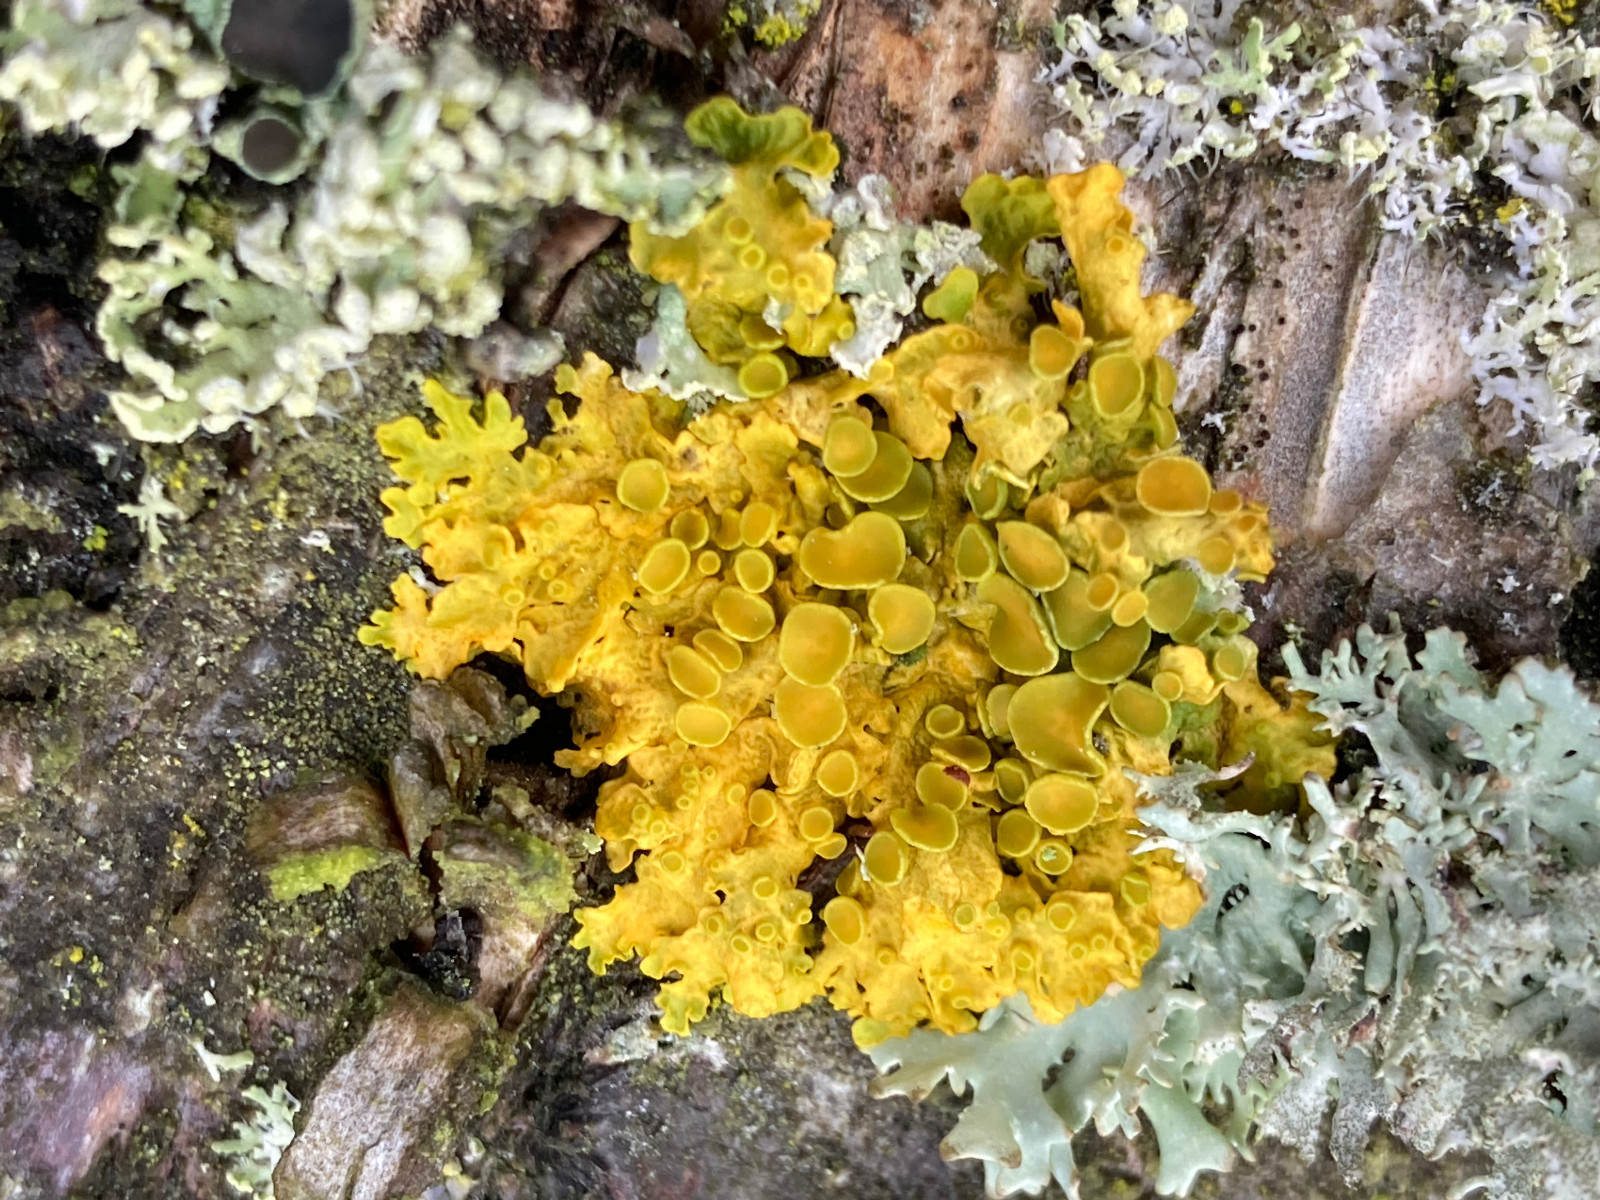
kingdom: Fungi
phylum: Ascomycota
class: Lecanoromycetes
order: Teloschistales
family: Teloschistaceae
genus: Xanthoria
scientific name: Xanthoria parietina
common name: almindelig væggelav
